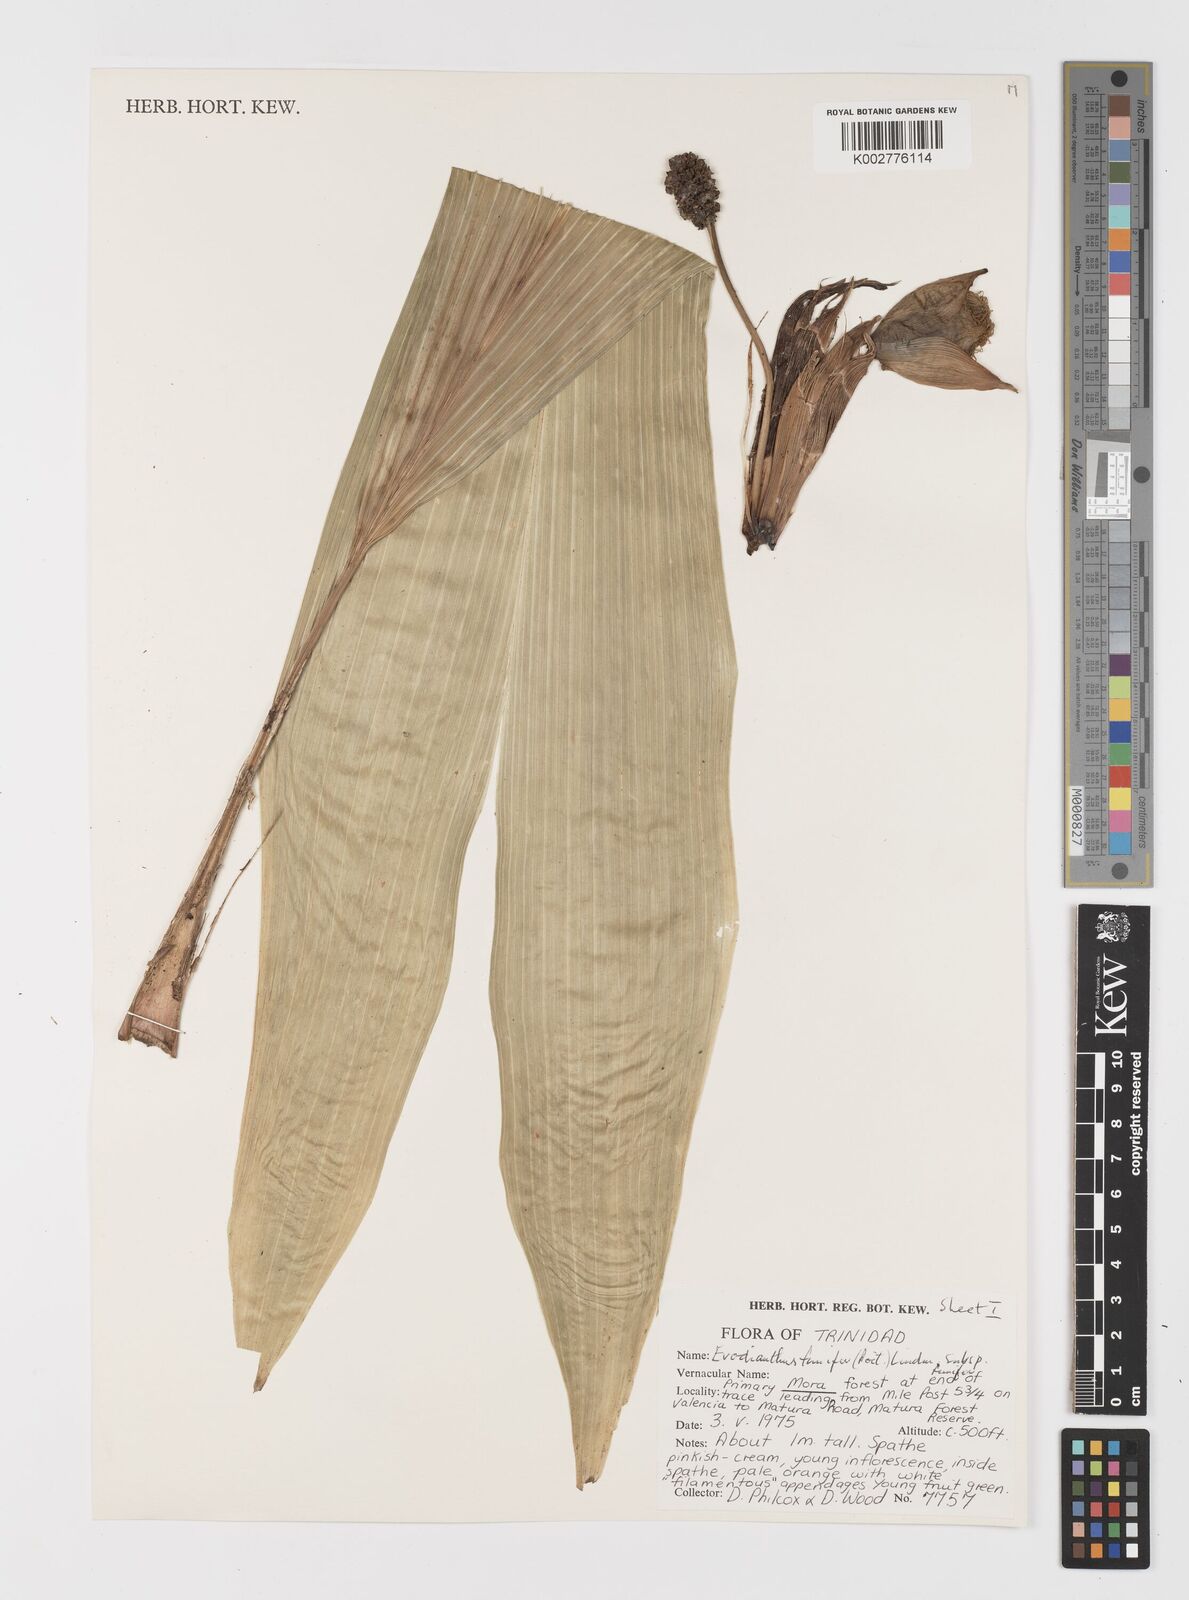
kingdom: Plantae
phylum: Tracheophyta
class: Liliopsida
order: Pandanales
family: Cyclanthaceae
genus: Evodianthus
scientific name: Evodianthus funifer
